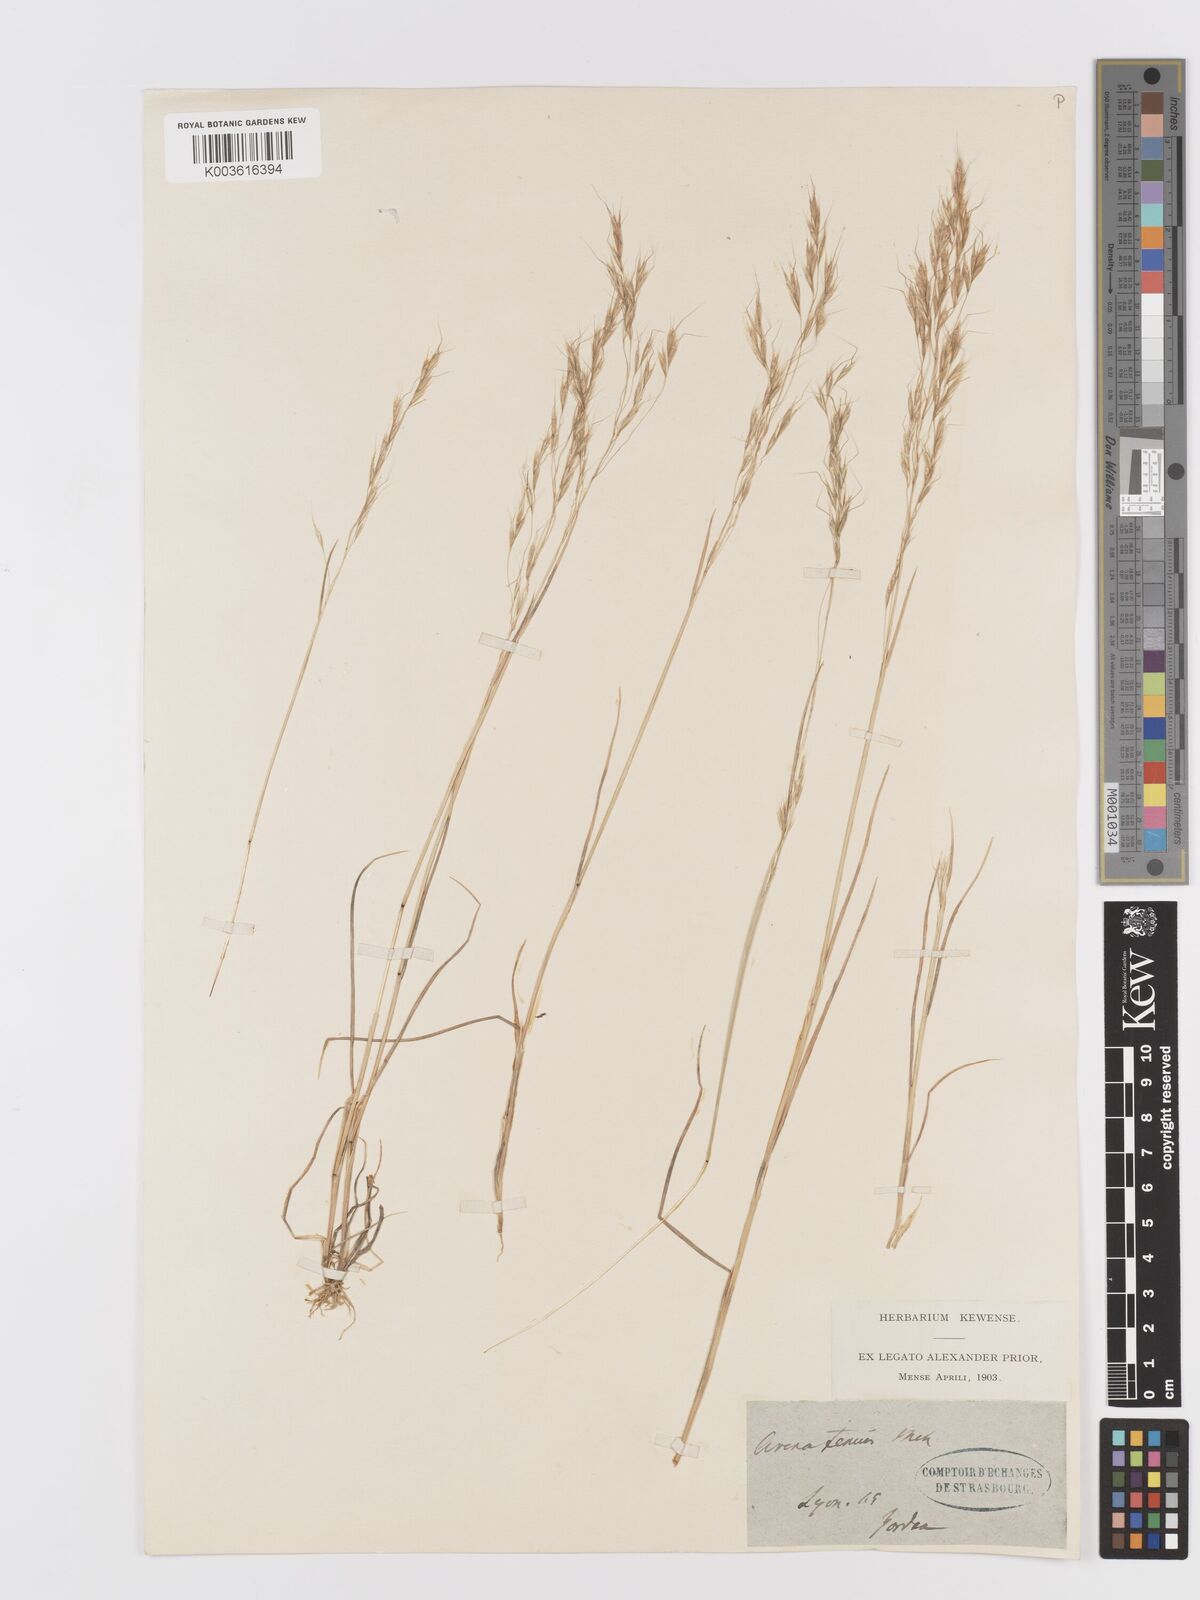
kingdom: Plantae
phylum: Tracheophyta
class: Liliopsida
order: Poales
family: Poaceae
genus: Ventenata
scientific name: Ventenata dubia
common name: North africa grass
